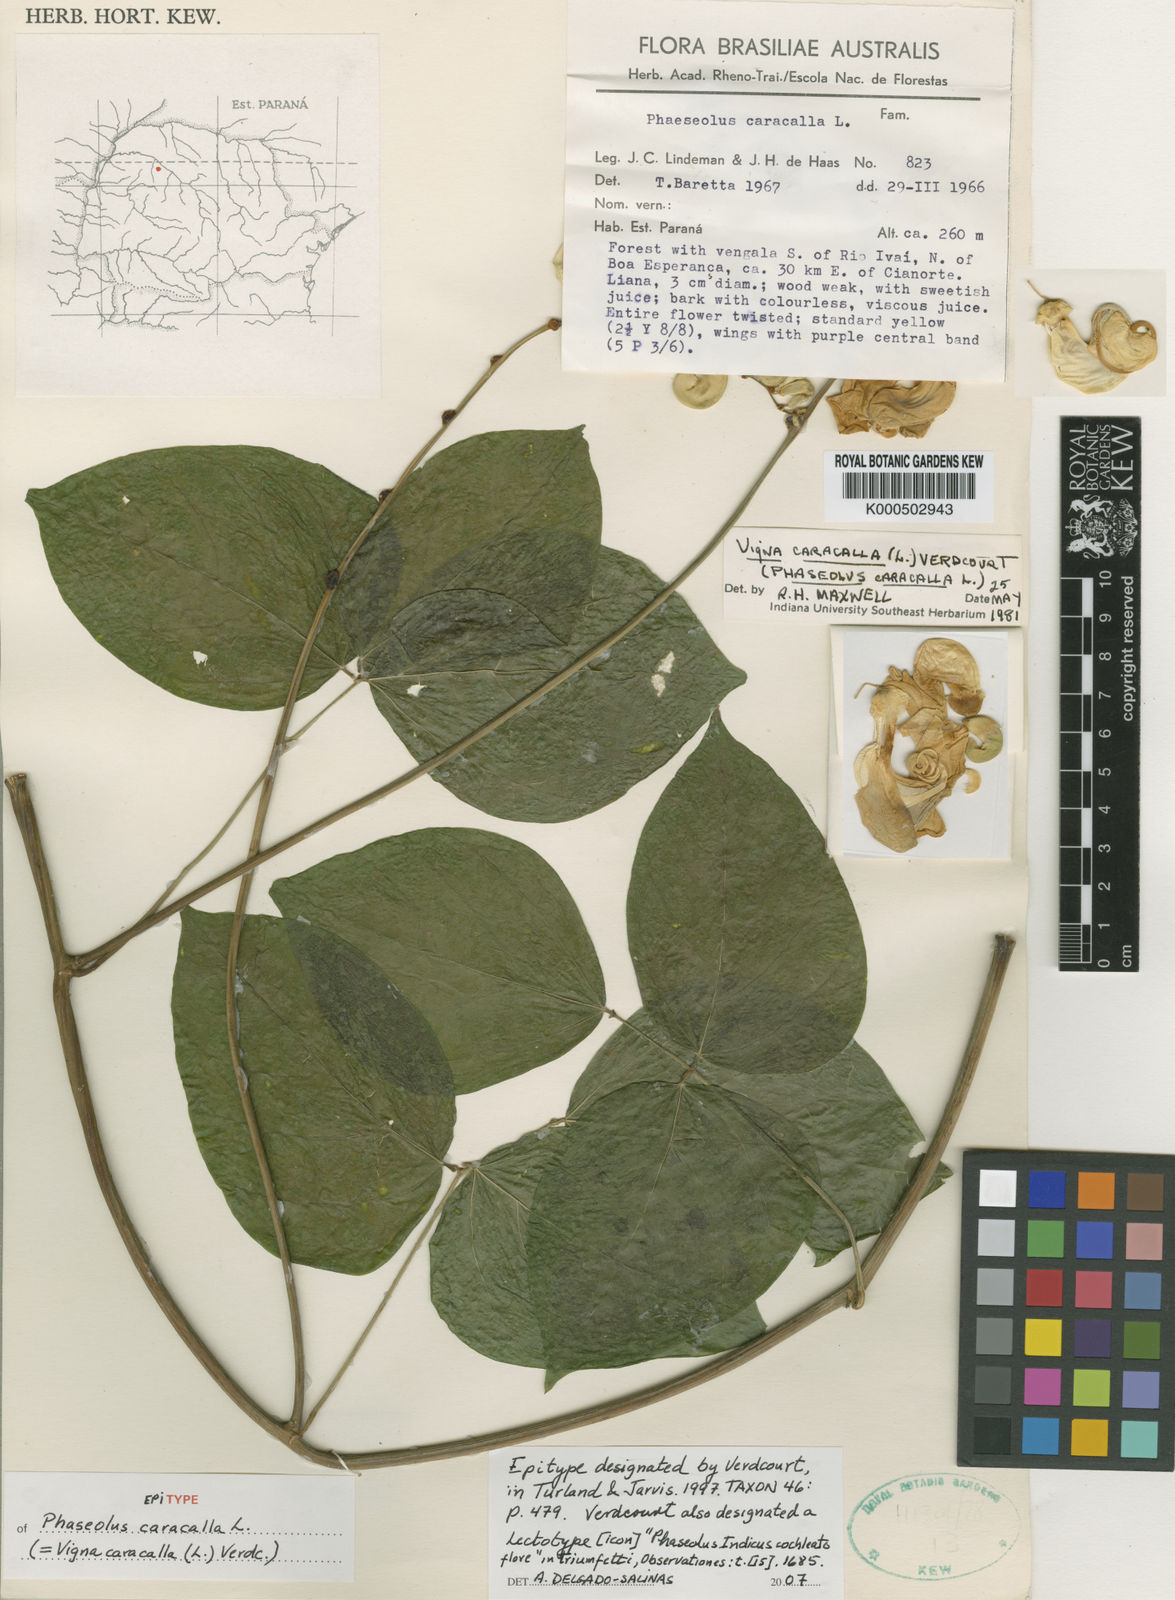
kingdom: Plantae
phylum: Tracheophyta
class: Magnoliopsida
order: Fabales
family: Fabaceae
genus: Cochliasanthus
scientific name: Cochliasanthus caracalla
